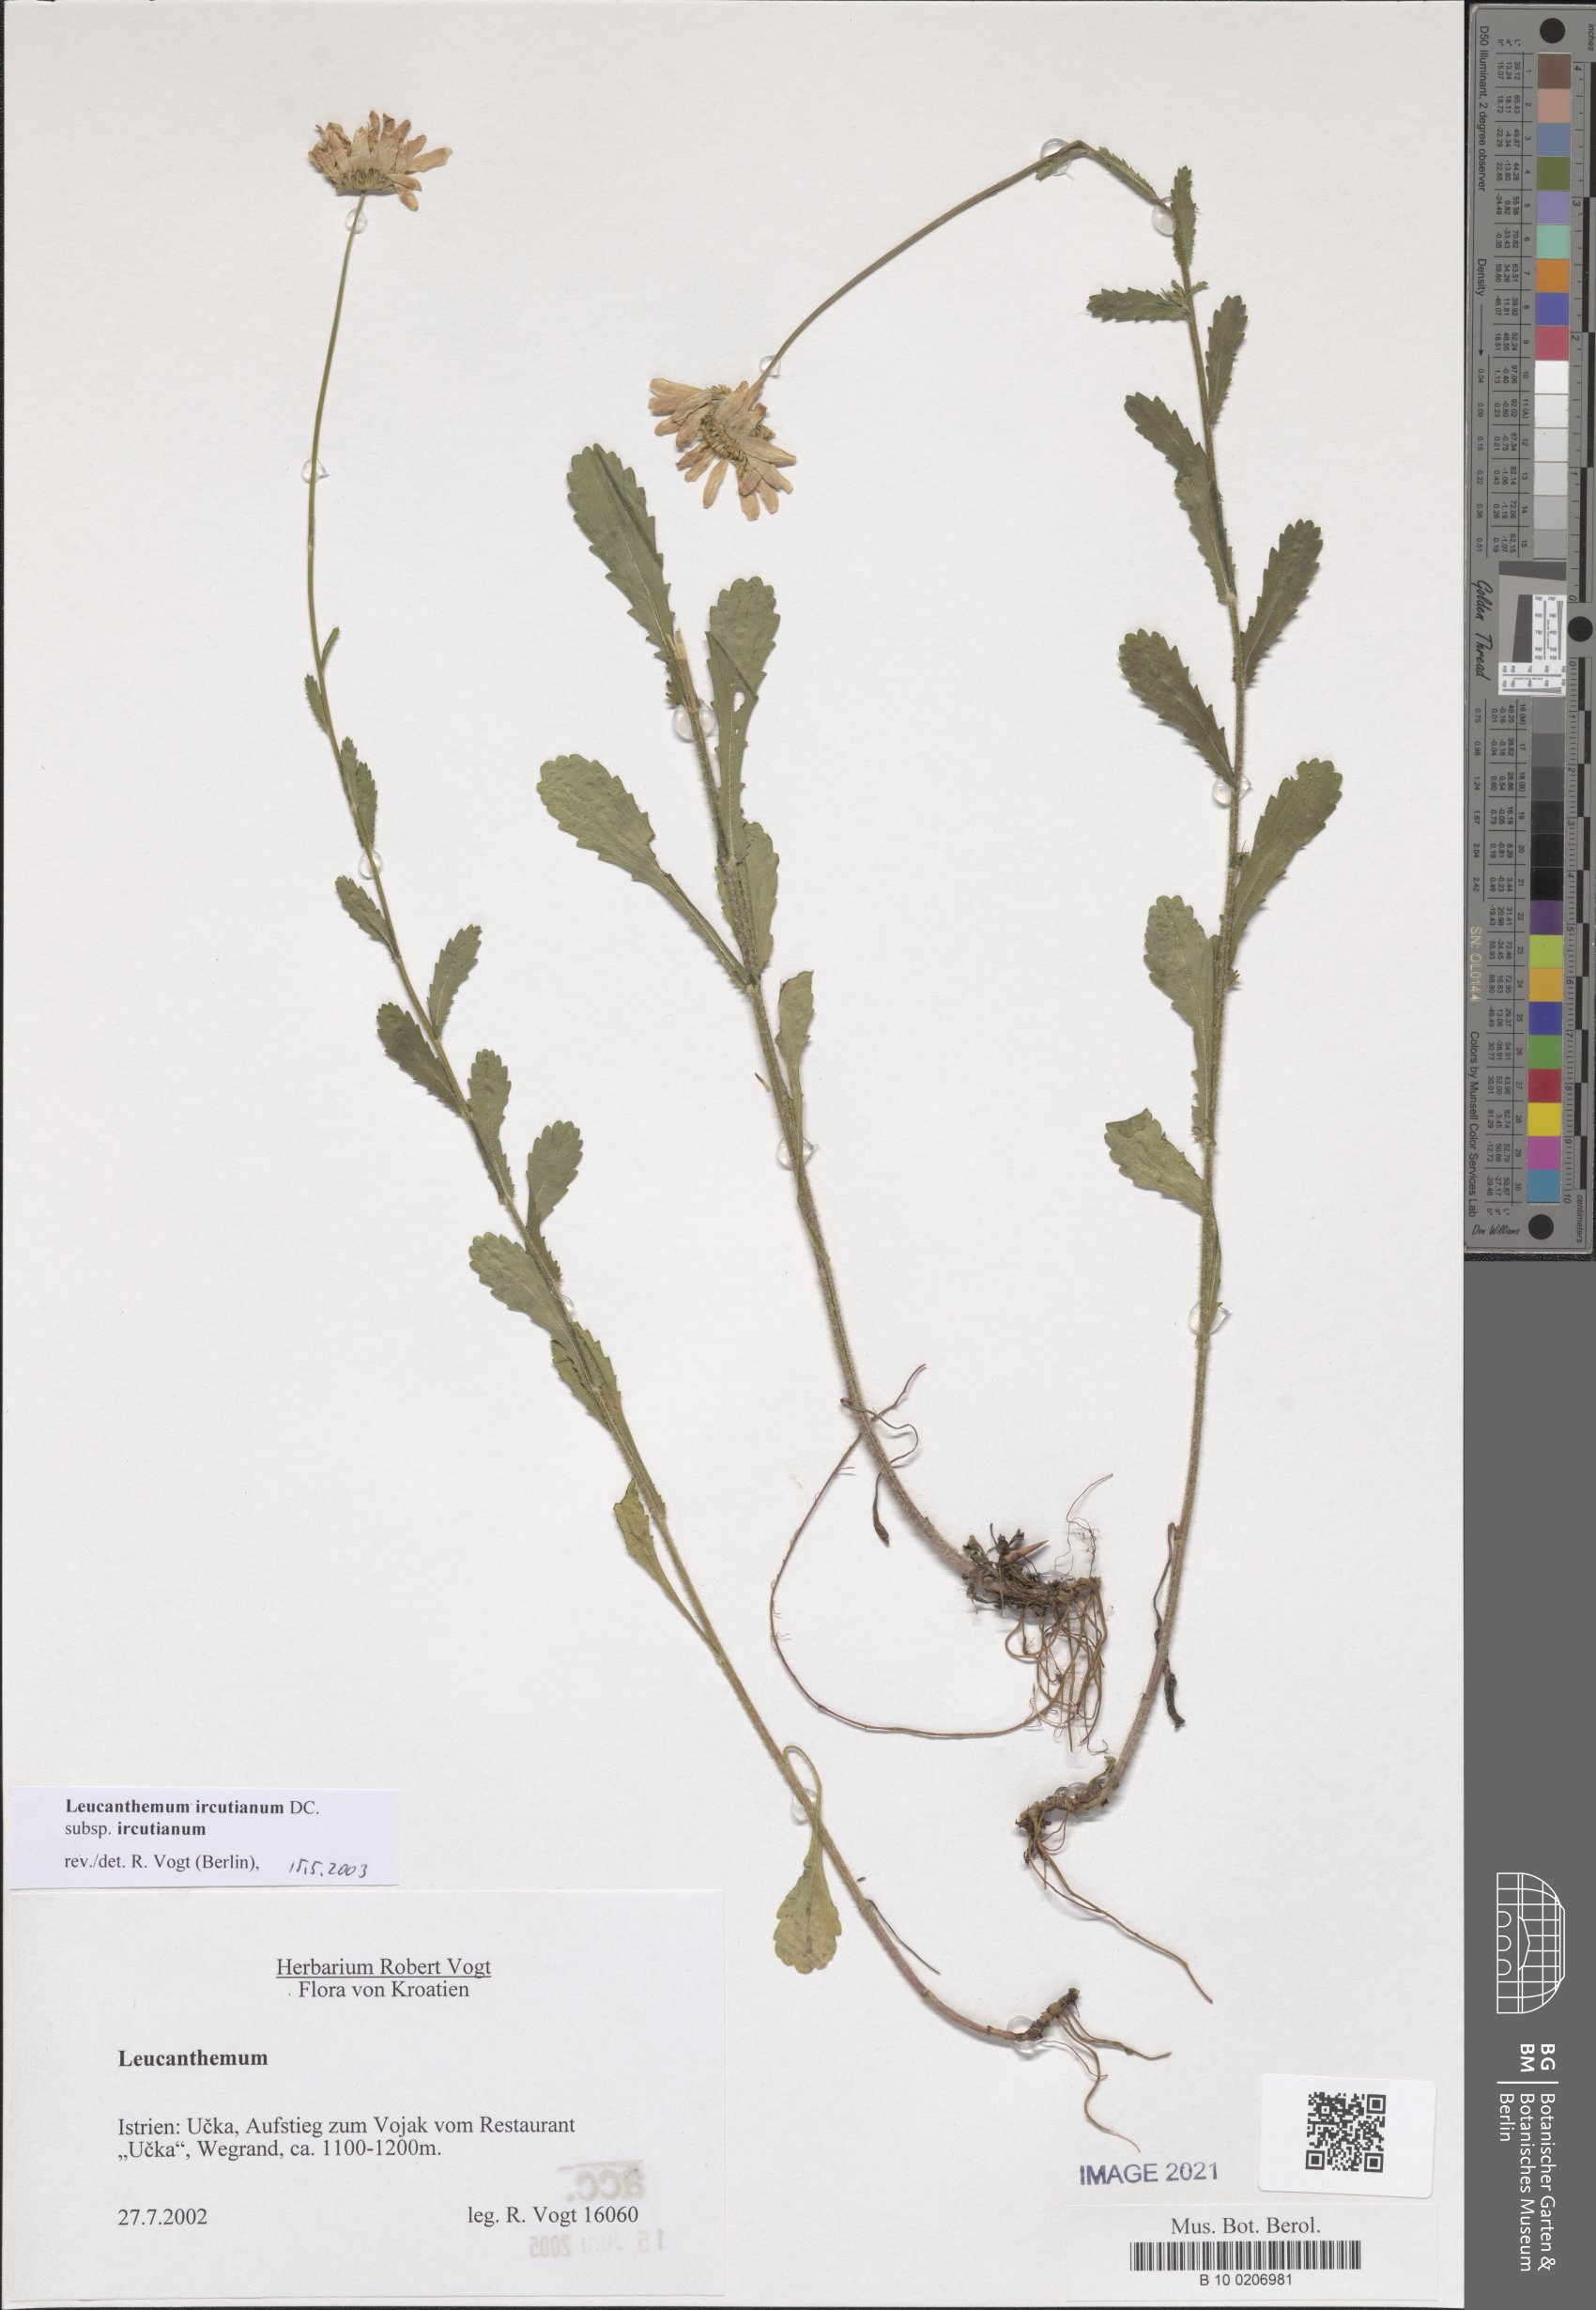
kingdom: Plantae
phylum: Tracheophyta
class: Magnoliopsida
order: Asterales
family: Asteraceae
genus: Leucanthemum
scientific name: Leucanthemum ircutianum
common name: Daisy
